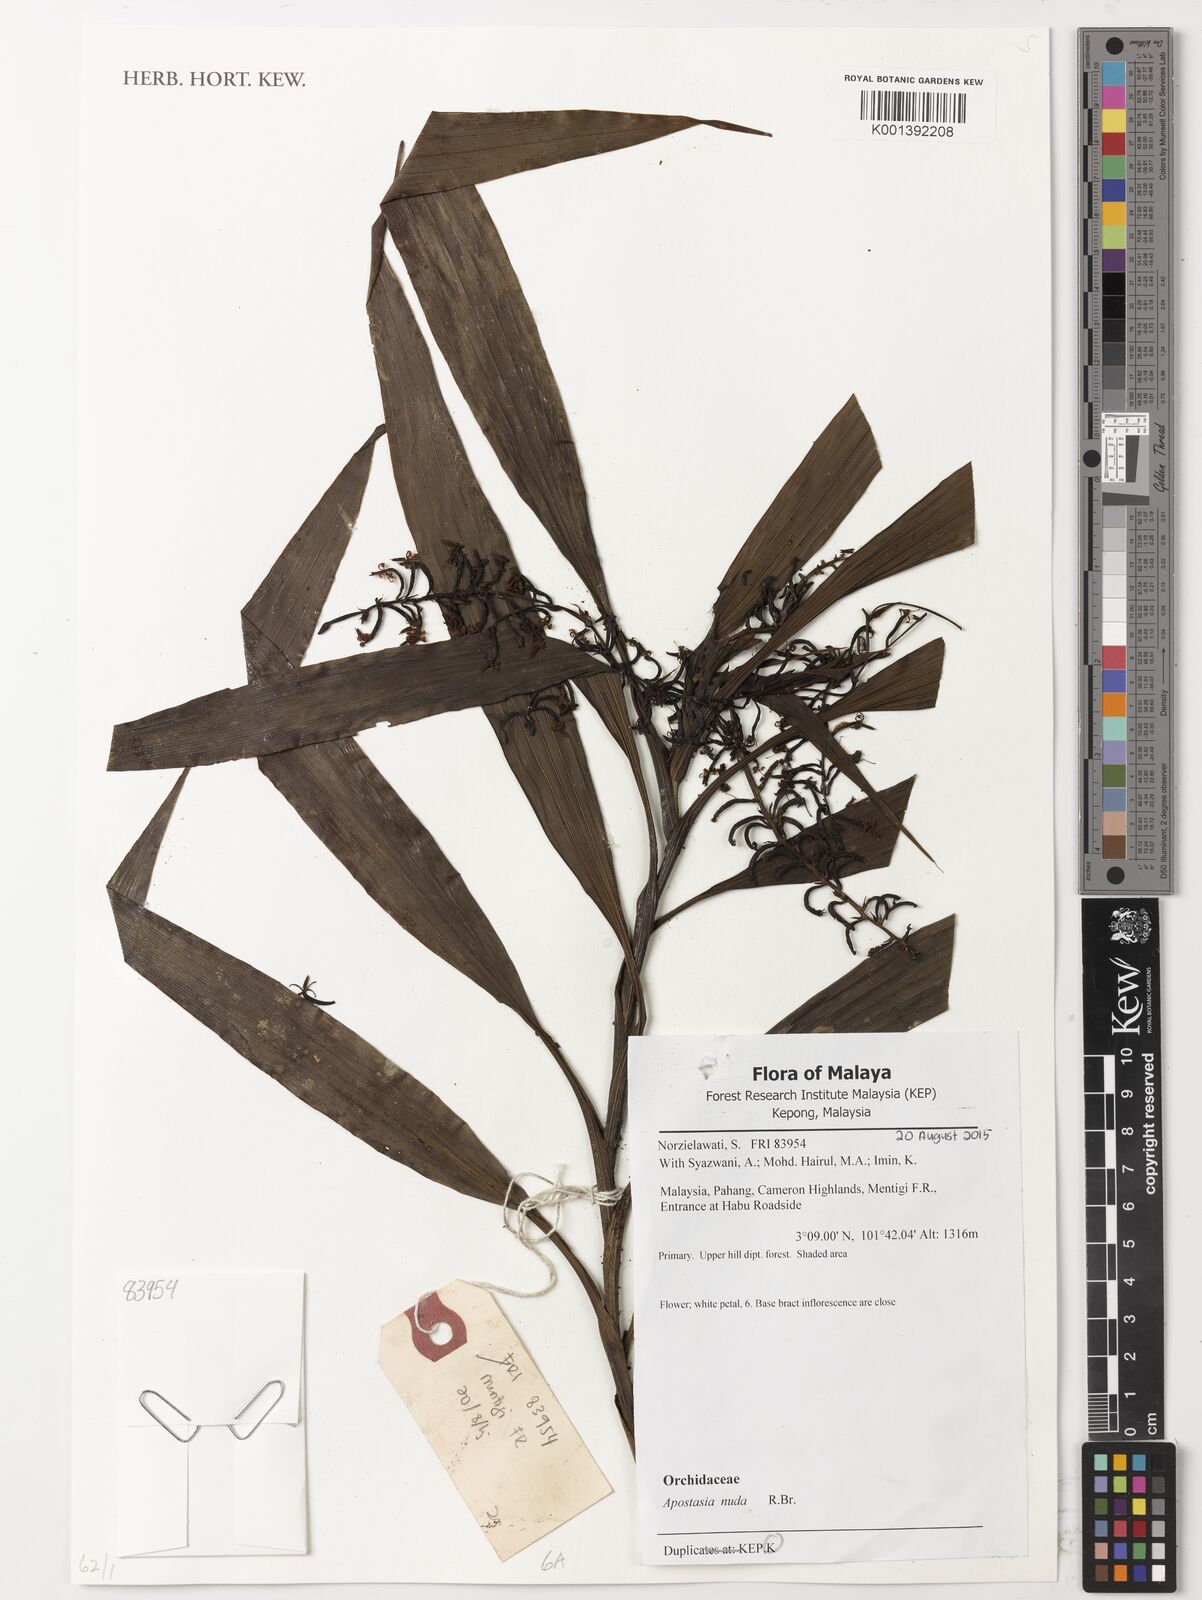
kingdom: Plantae
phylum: Tracheophyta
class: Liliopsida
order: Asparagales
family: Orchidaceae
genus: Apostasia
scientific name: Apostasia nuda
